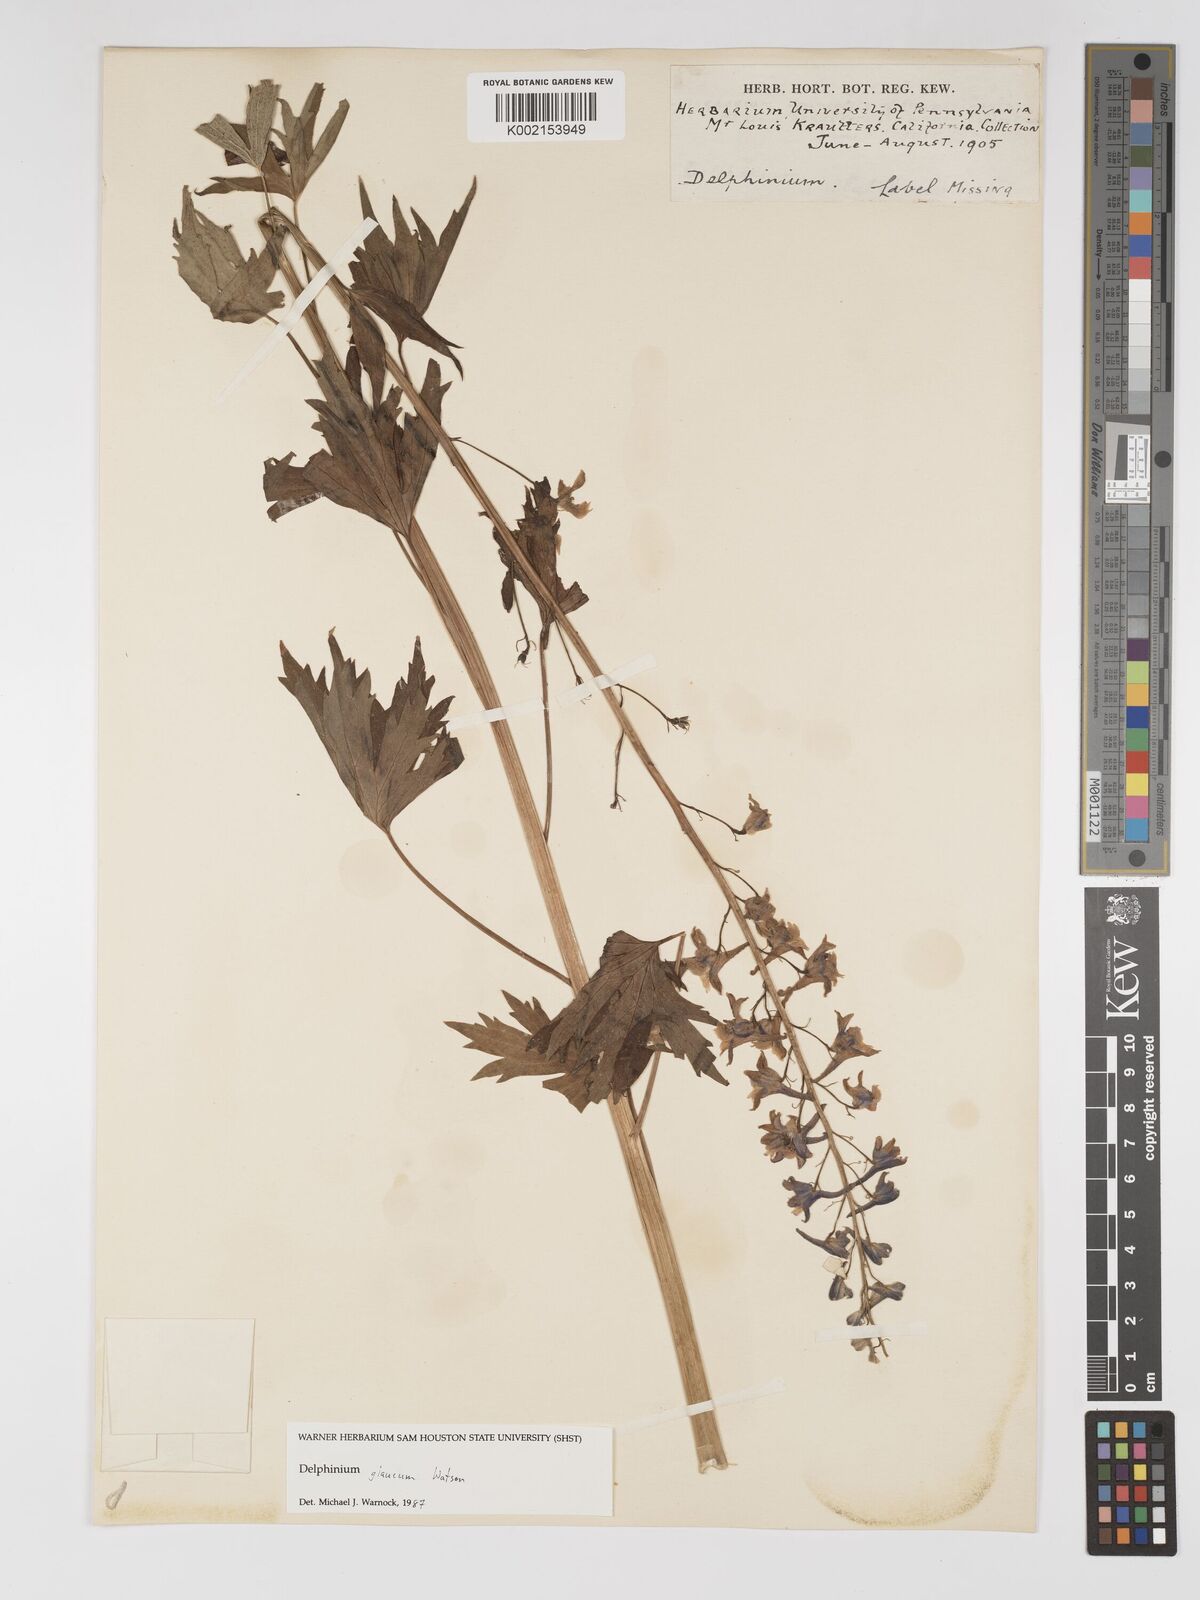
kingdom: Plantae
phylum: Tracheophyta
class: Magnoliopsida
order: Ranunculales
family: Ranunculaceae
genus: Delphinium
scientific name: Delphinium glaucum
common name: Brown's larkspur
